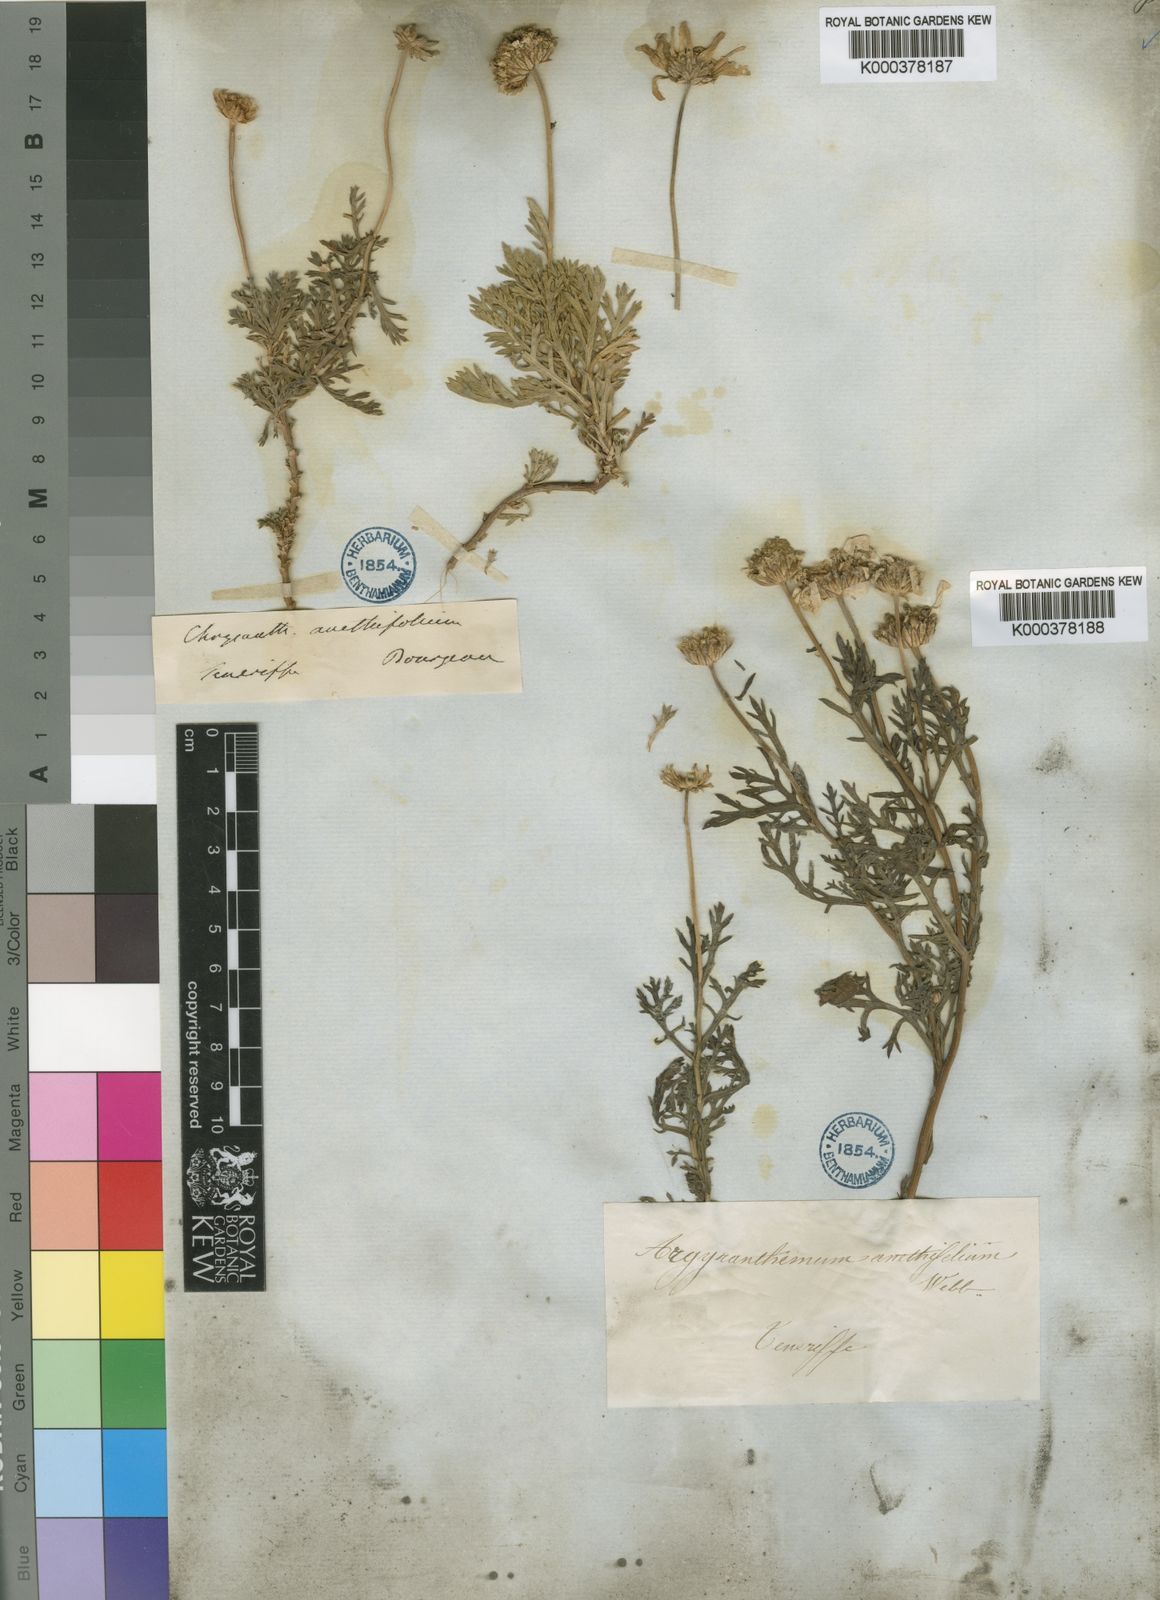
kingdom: Plantae
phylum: Tracheophyta
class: Magnoliopsida
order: Asterales
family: Asteraceae
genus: Argyranthemum
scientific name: Argyranthemum tenerifae
